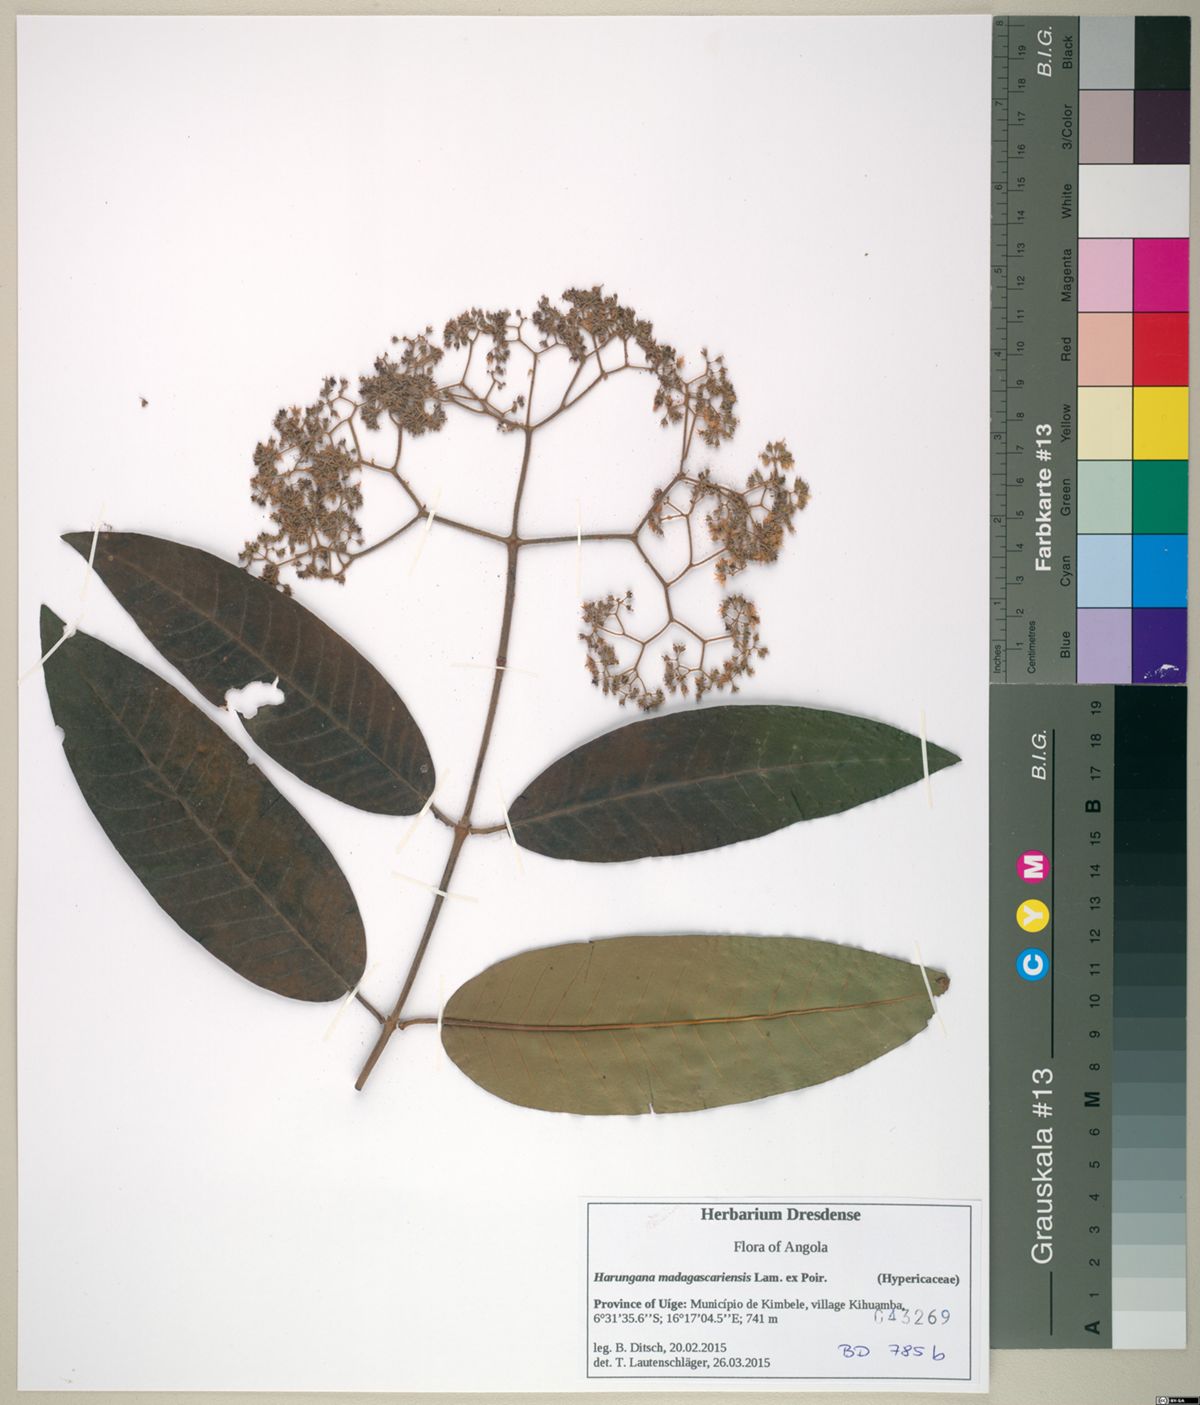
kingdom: Plantae
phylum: Tracheophyta
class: Magnoliopsida
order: Malpighiales
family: Hypericaceae
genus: Harungana
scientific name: Harungana madagascariensis
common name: Orange milktree
